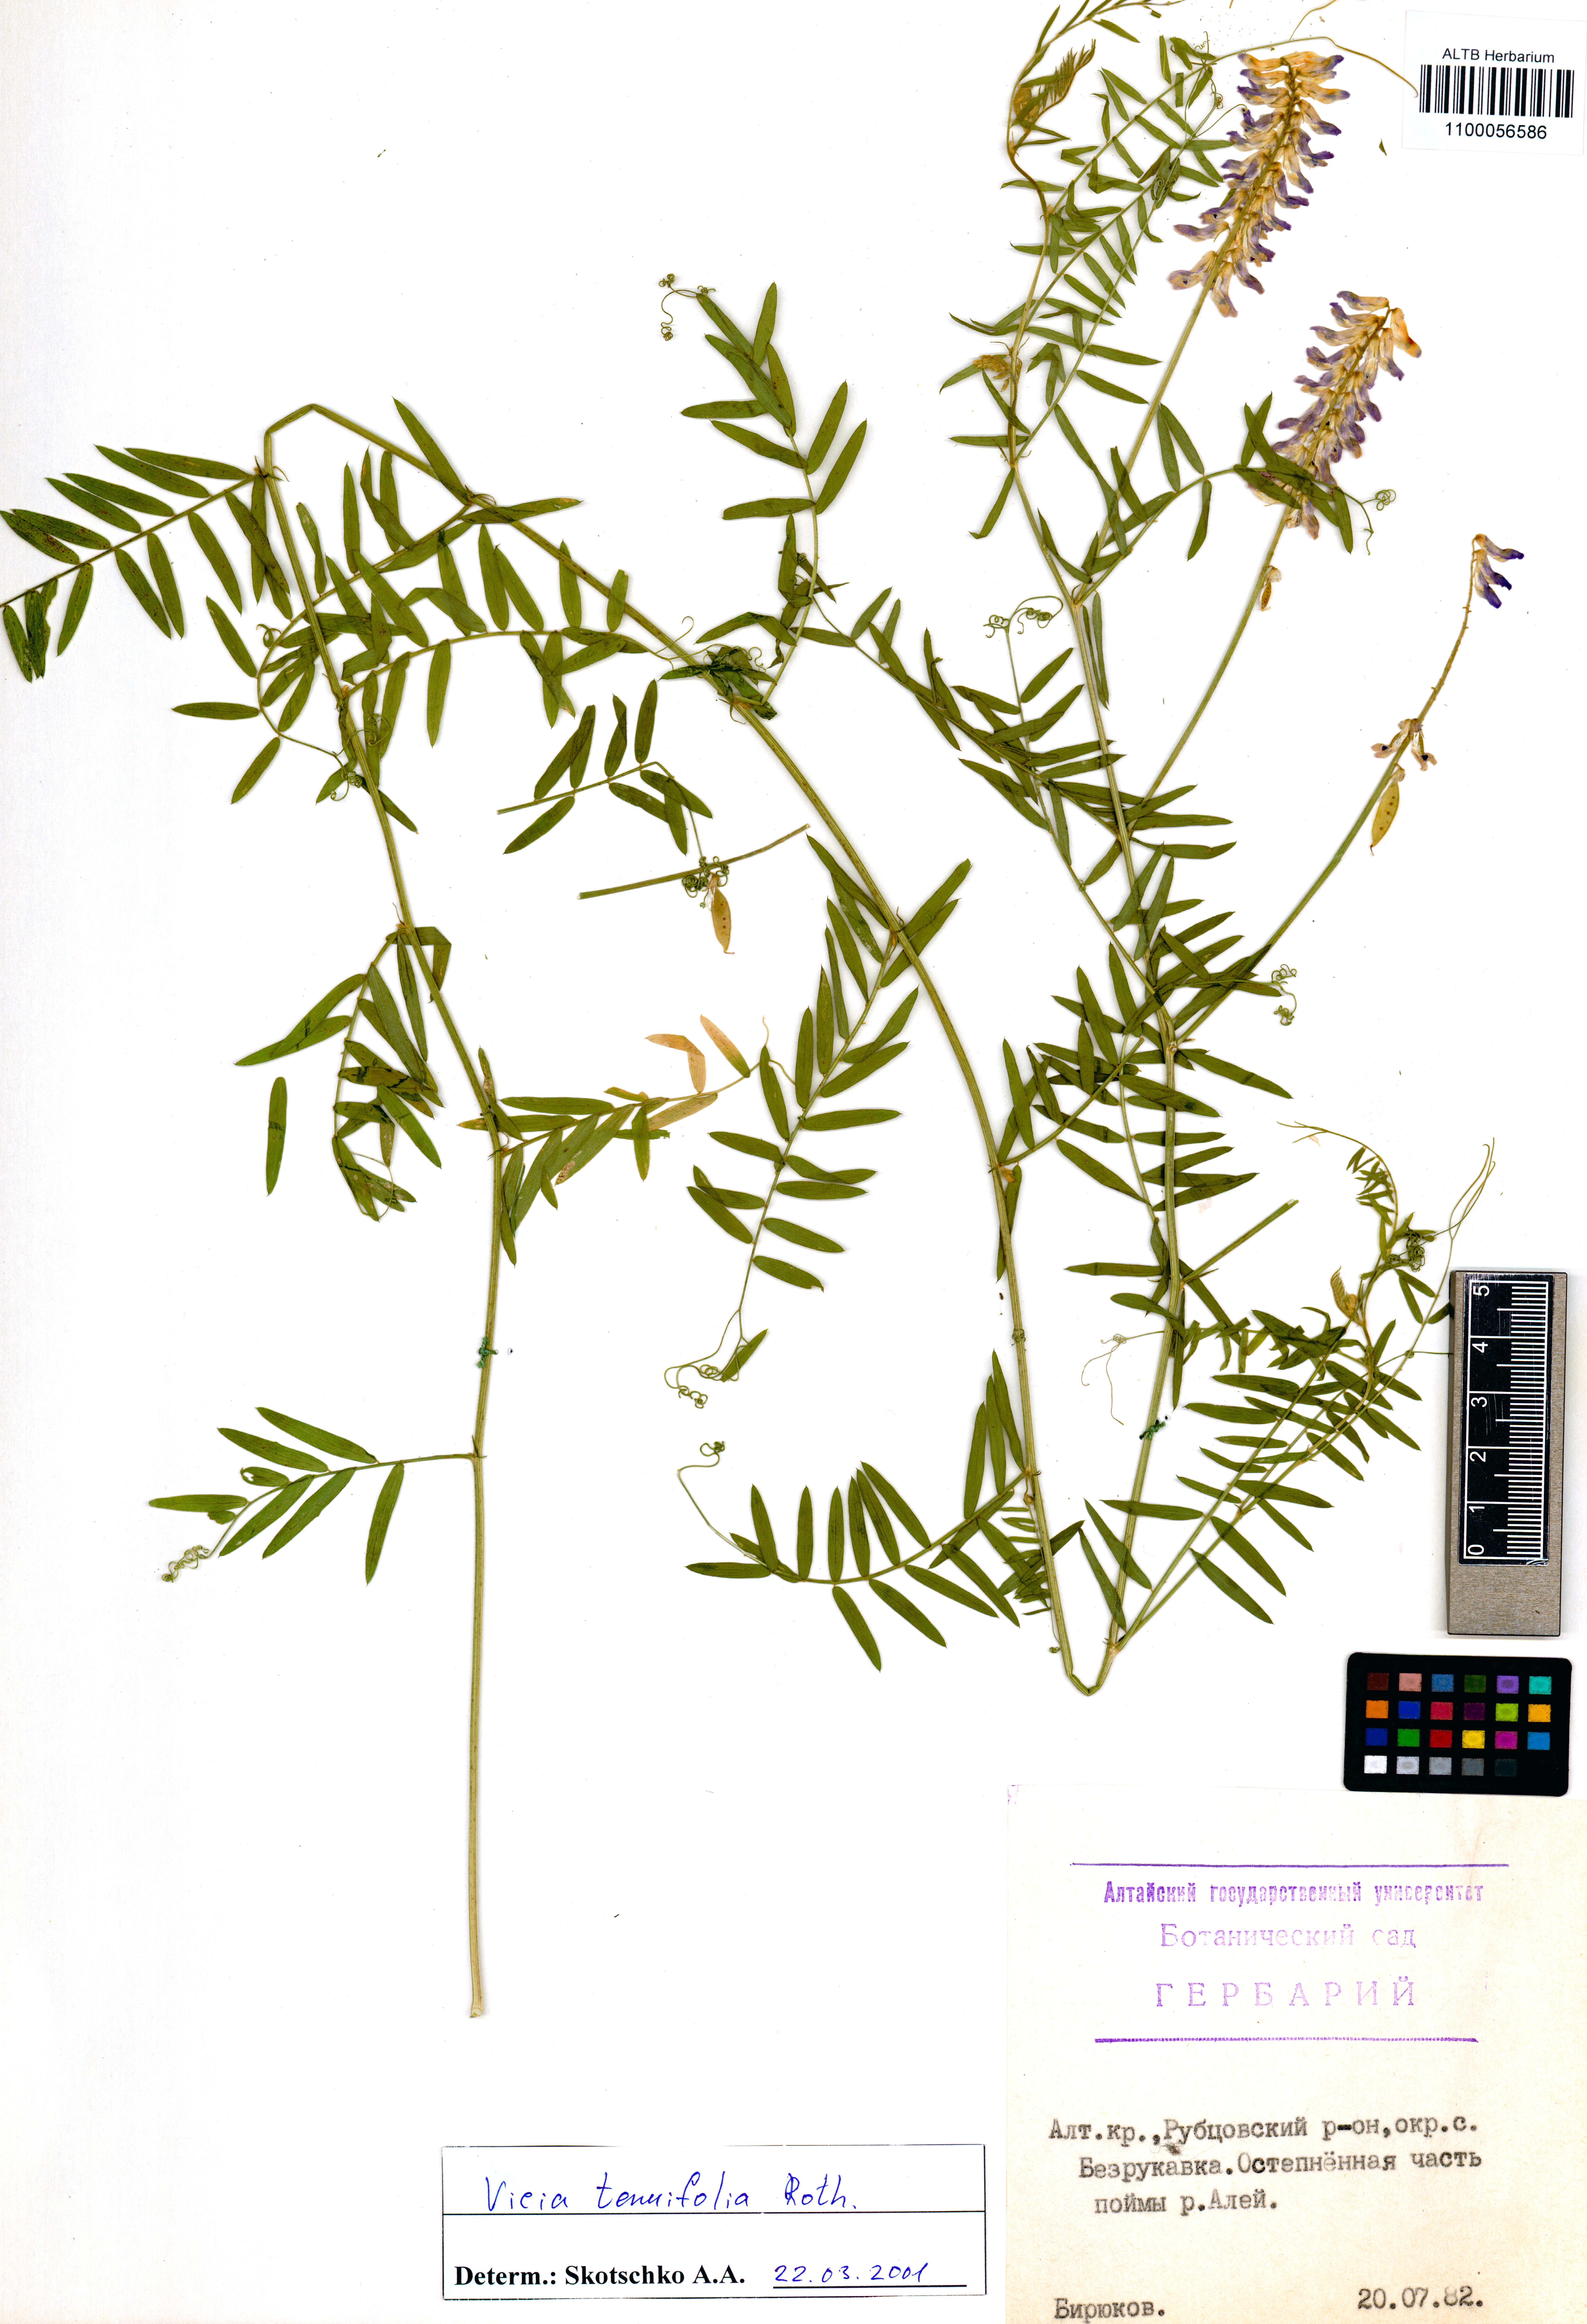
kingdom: Plantae
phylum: Tracheophyta
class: Magnoliopsida
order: Fabales
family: Fabaceae
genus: Vicia
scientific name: Vicia tenuifolia
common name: Fine-leaved vetch
